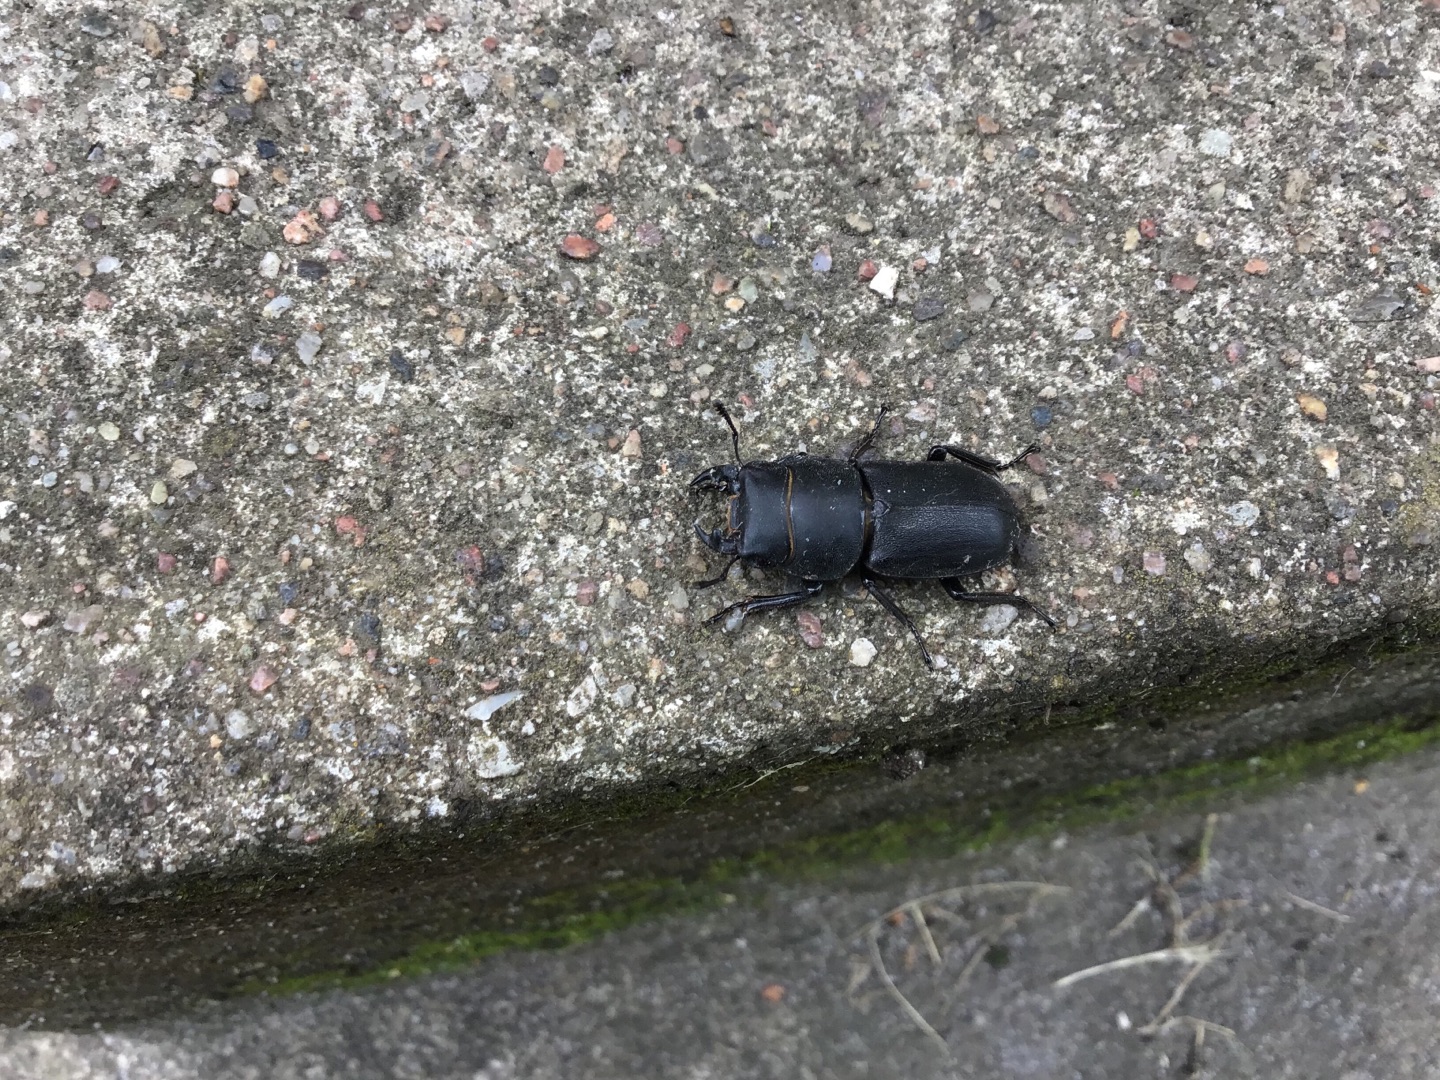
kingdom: Animalia
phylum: Arthropoda
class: Insecta
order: Coleoptera
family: Lucanidae
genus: Dorcus
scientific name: Dorcus parallelipipedus
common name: Bøghjort
